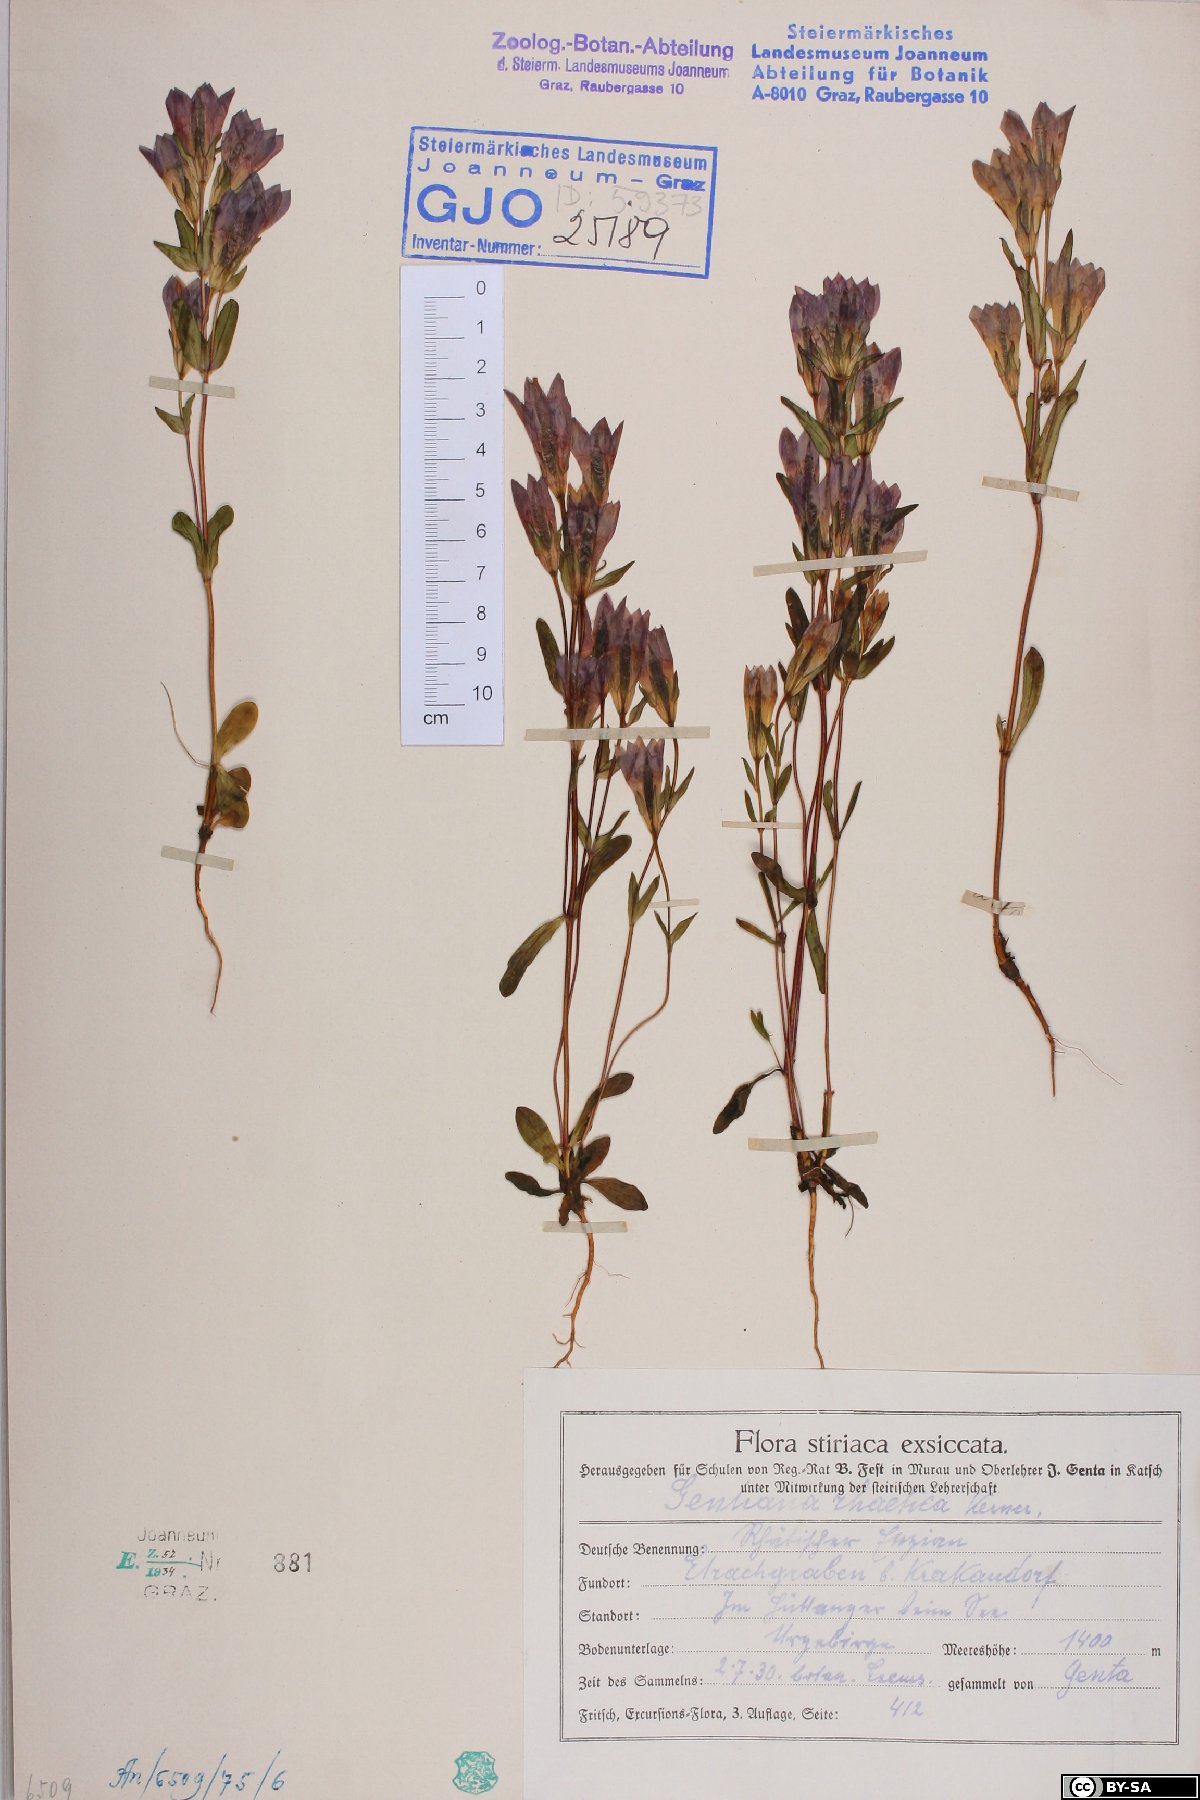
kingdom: Plantae
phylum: Tracheophyta
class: Magnoliopsida
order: Gentianales
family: Gentianaceae
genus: Gentianella
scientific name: Gentianella rhaetica
